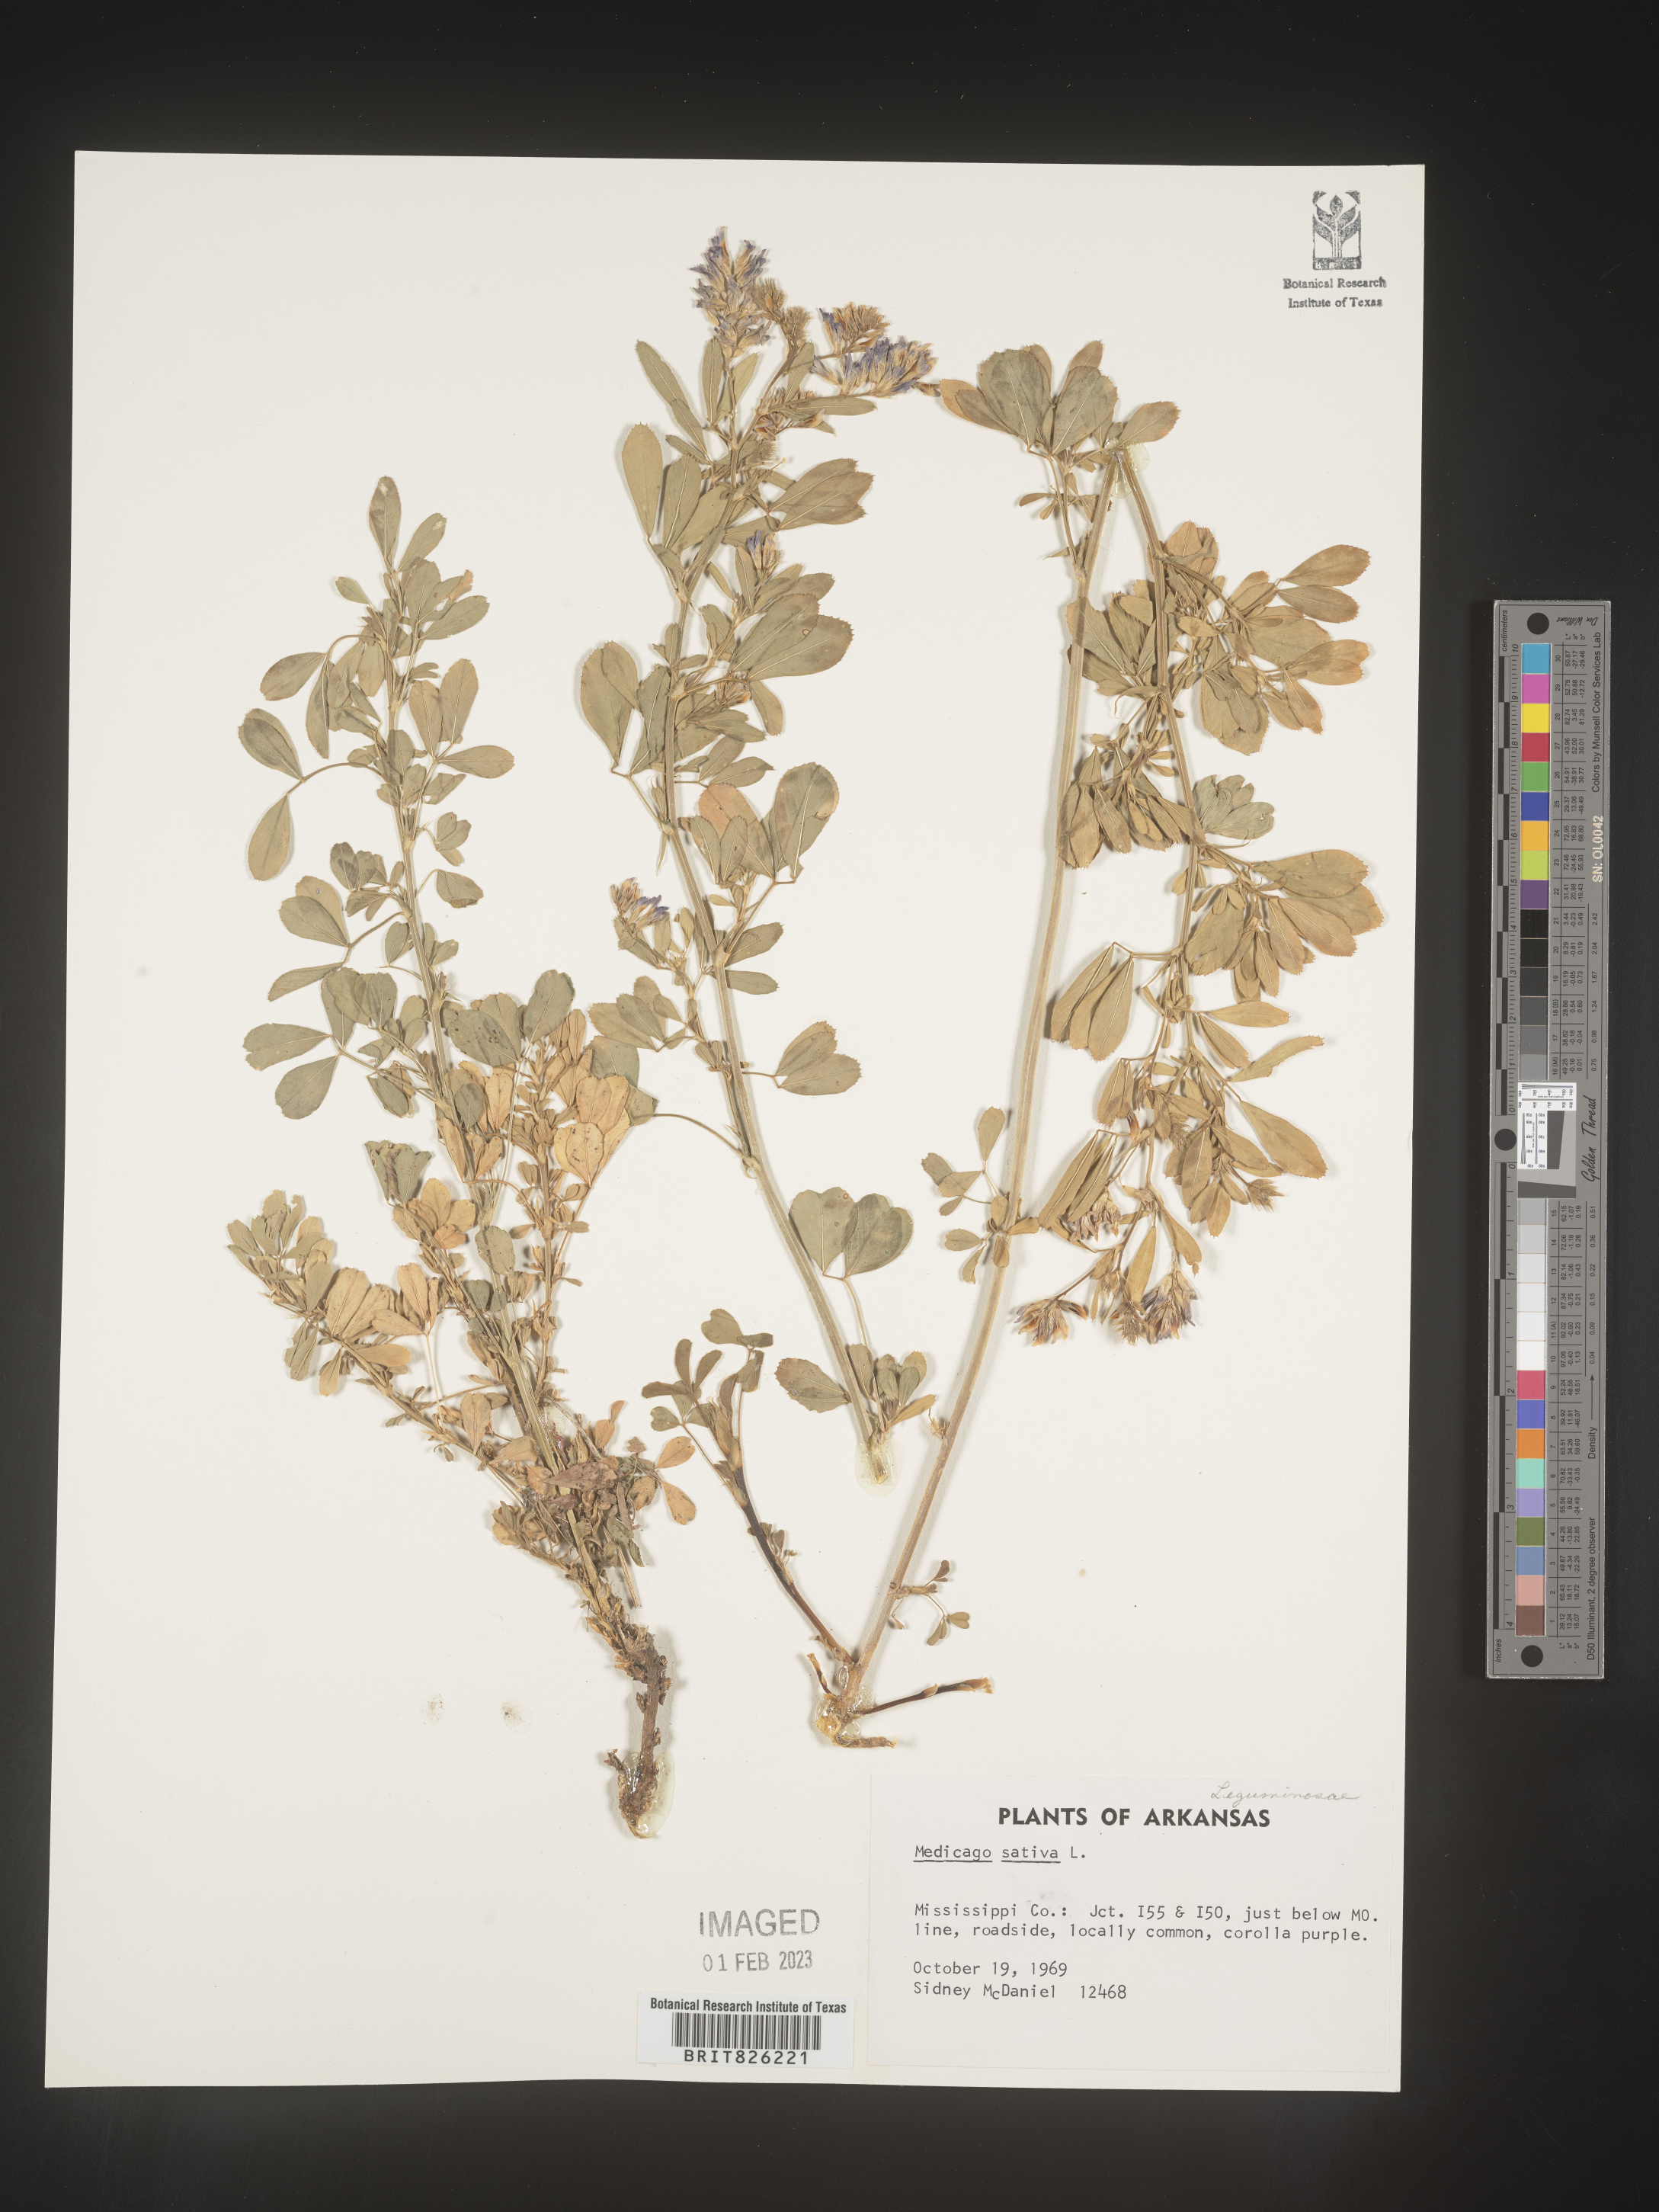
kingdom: Plantae
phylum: Tracheophyta
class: Magnoliopsida
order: Fabales
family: Fabaceae
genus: Medicago
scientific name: Medicago sativa
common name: Alfalfa
